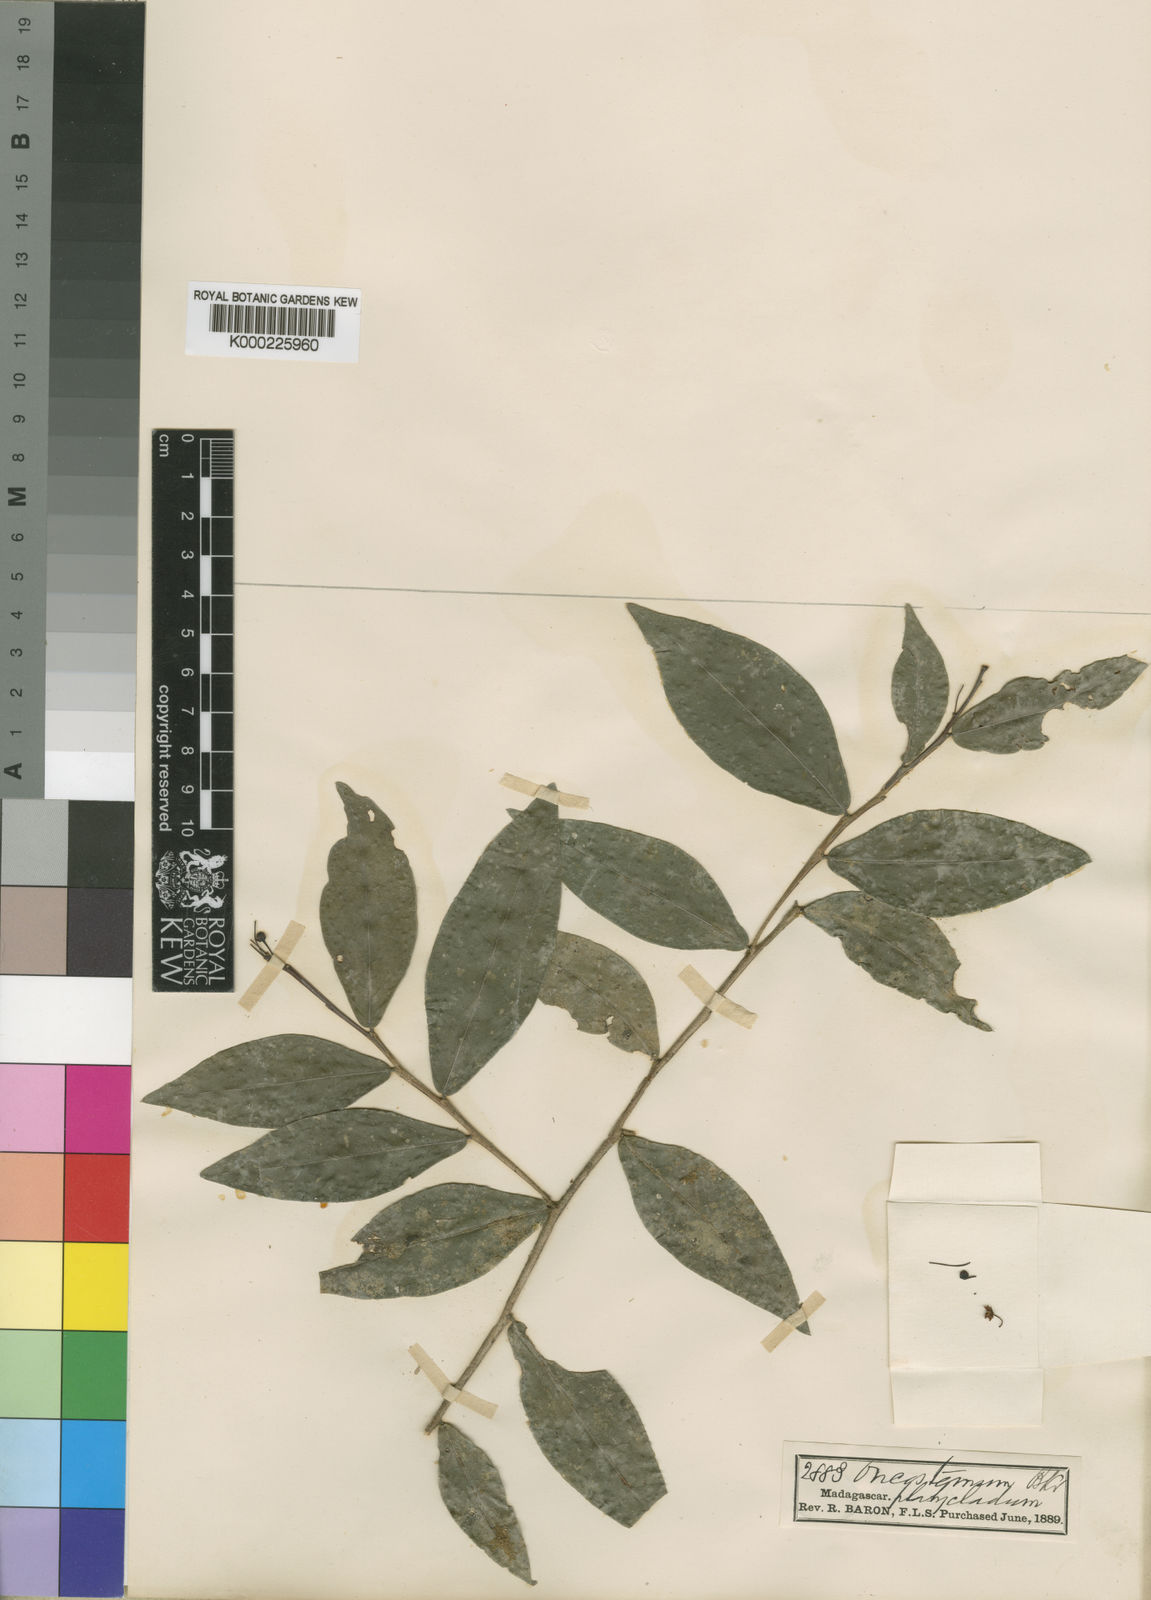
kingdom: Plantae
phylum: Tracheophyta
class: Magnoliopsida
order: Ericales
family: Primulaceae
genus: Oncostemum
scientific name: Oncostemum platycladum
